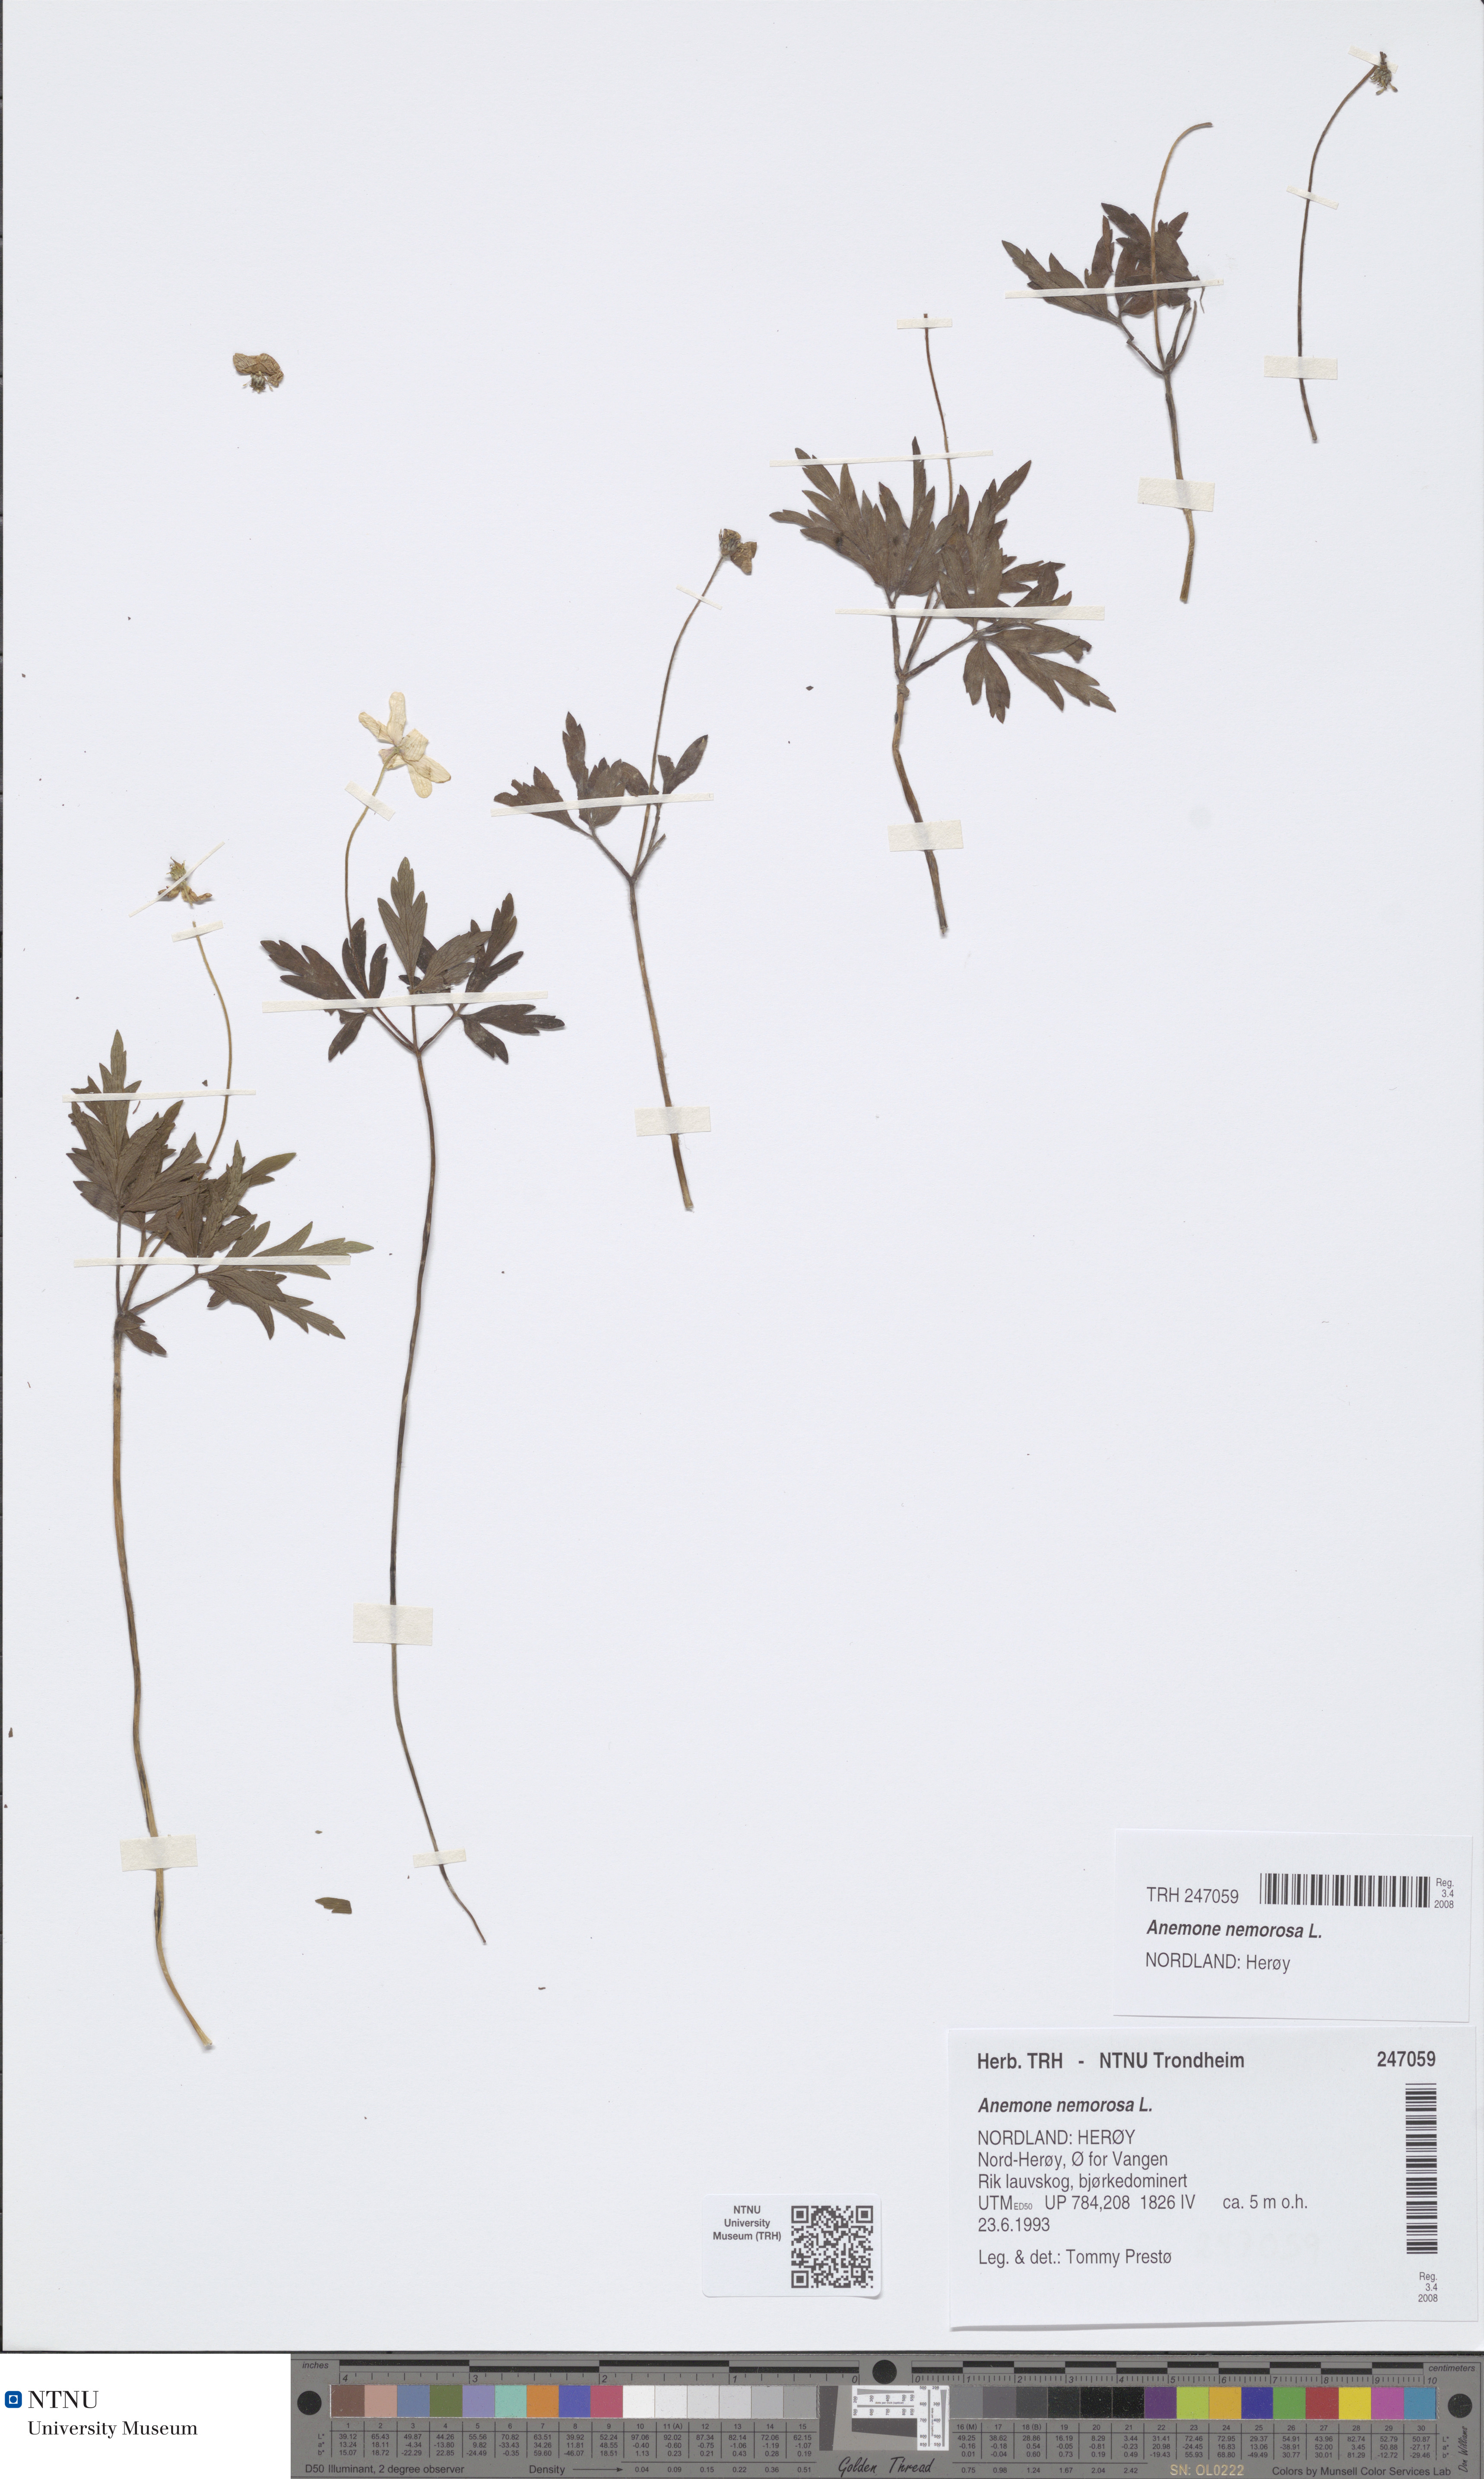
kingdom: Plantae
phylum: Tracheophyta
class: Magnoliopsida
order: Ranunculales
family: Ranunculaceae
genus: Anemone
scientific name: Anemone nemorosa
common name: Wood anemone
